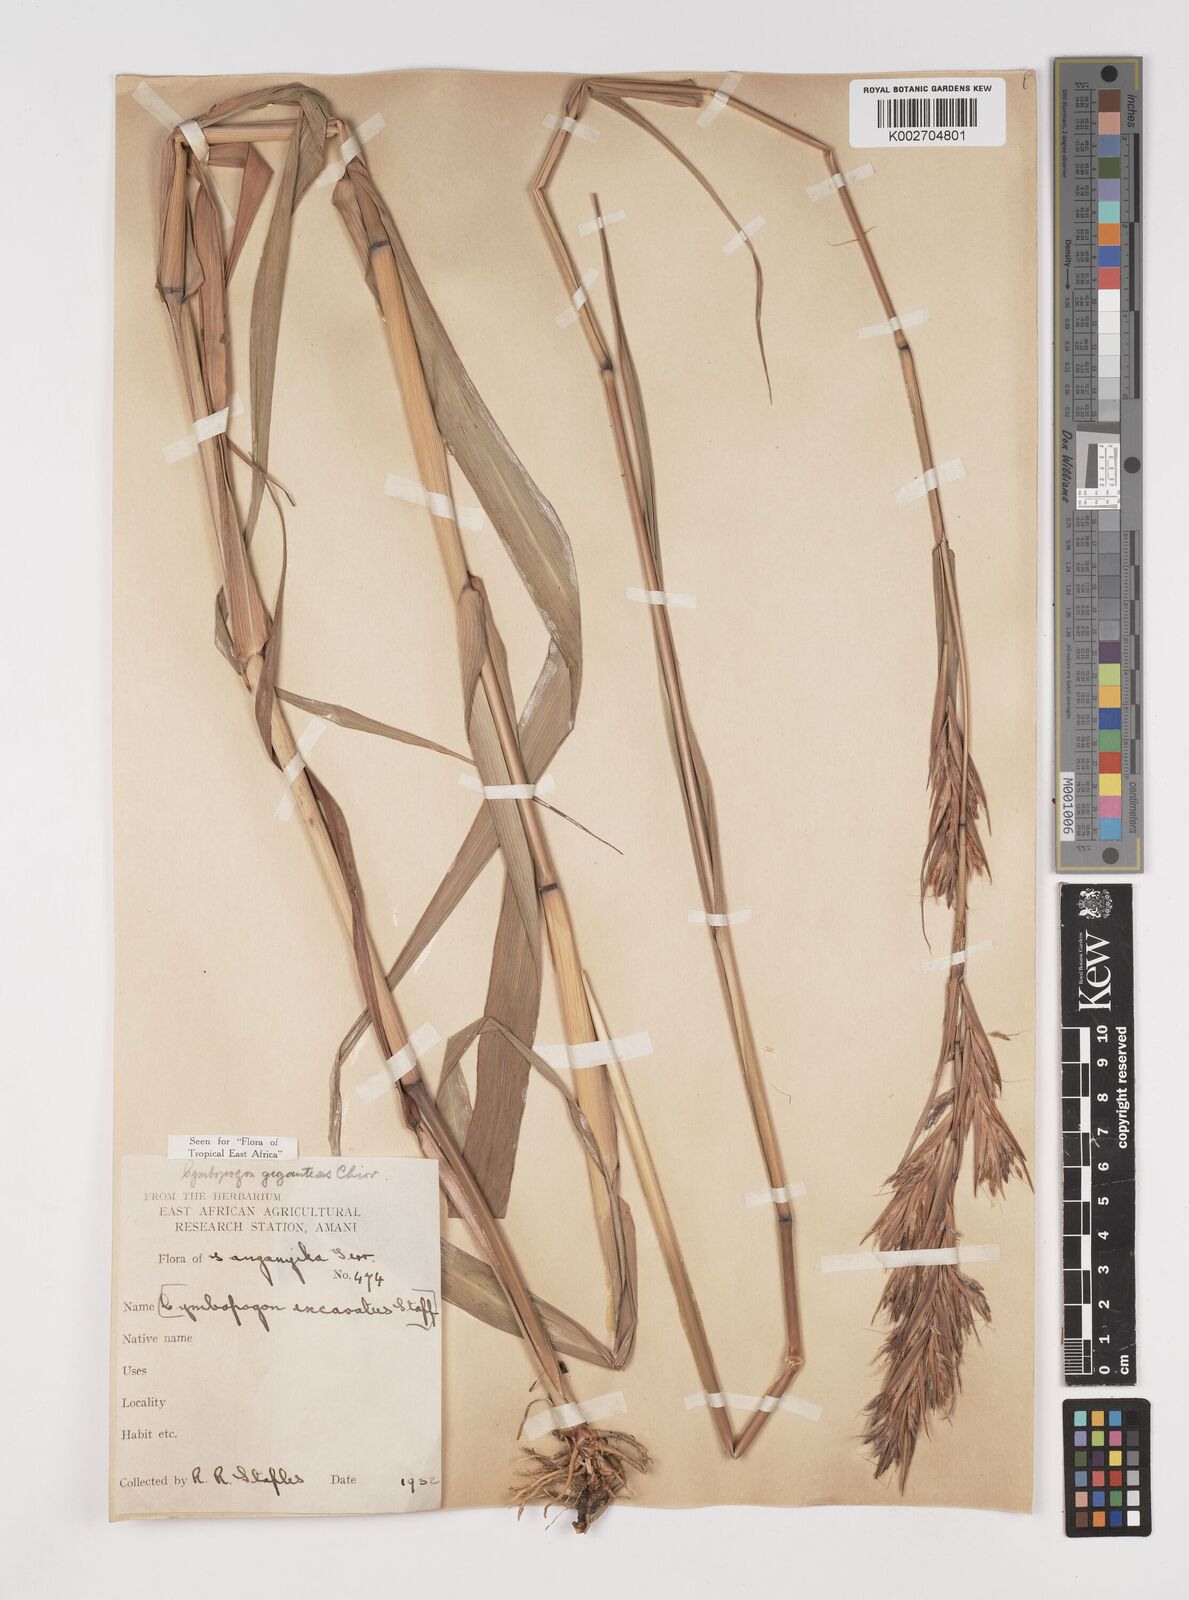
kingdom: Plantae
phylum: Tracheophyta
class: Liliopsida
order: Poales
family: Poaceae
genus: Cymbopogon
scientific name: Cymbopogon giganteus
